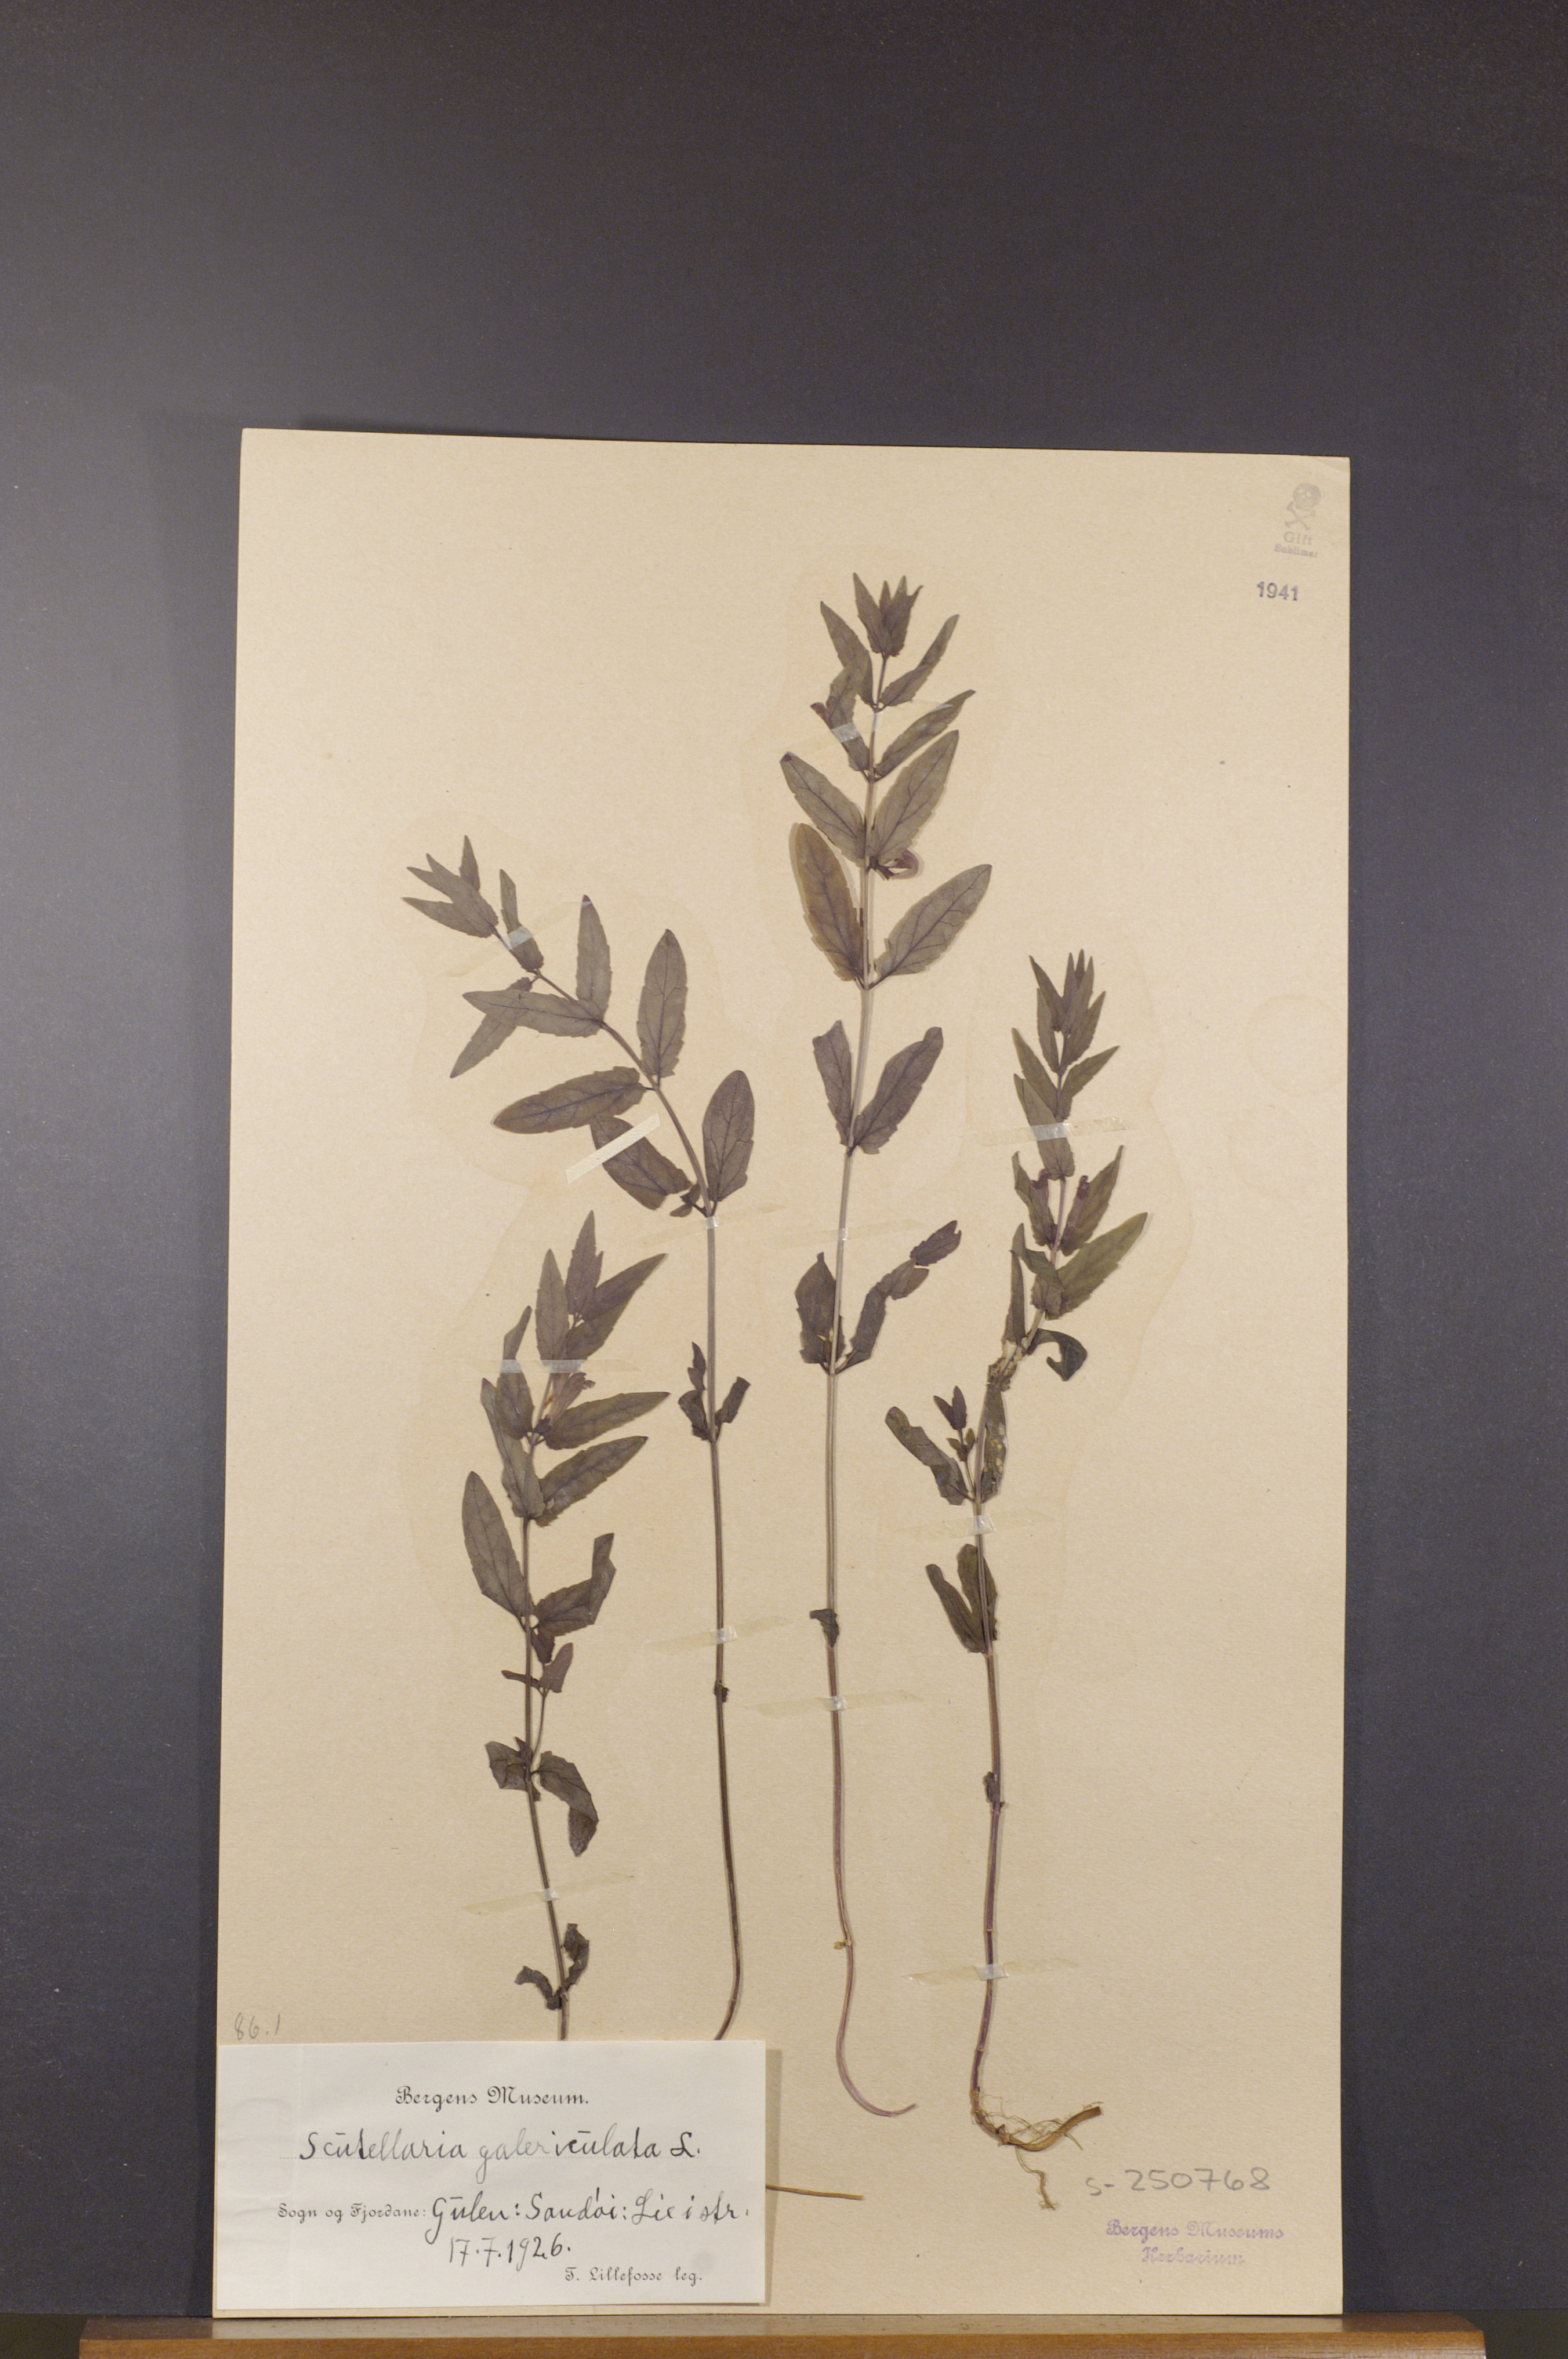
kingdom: Plantae
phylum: Tracheophyta
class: Magnoliopsida
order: Lamiales
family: Lamiaceae
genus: Scutellaria
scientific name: Scutellaria galericulata
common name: Skullcap
